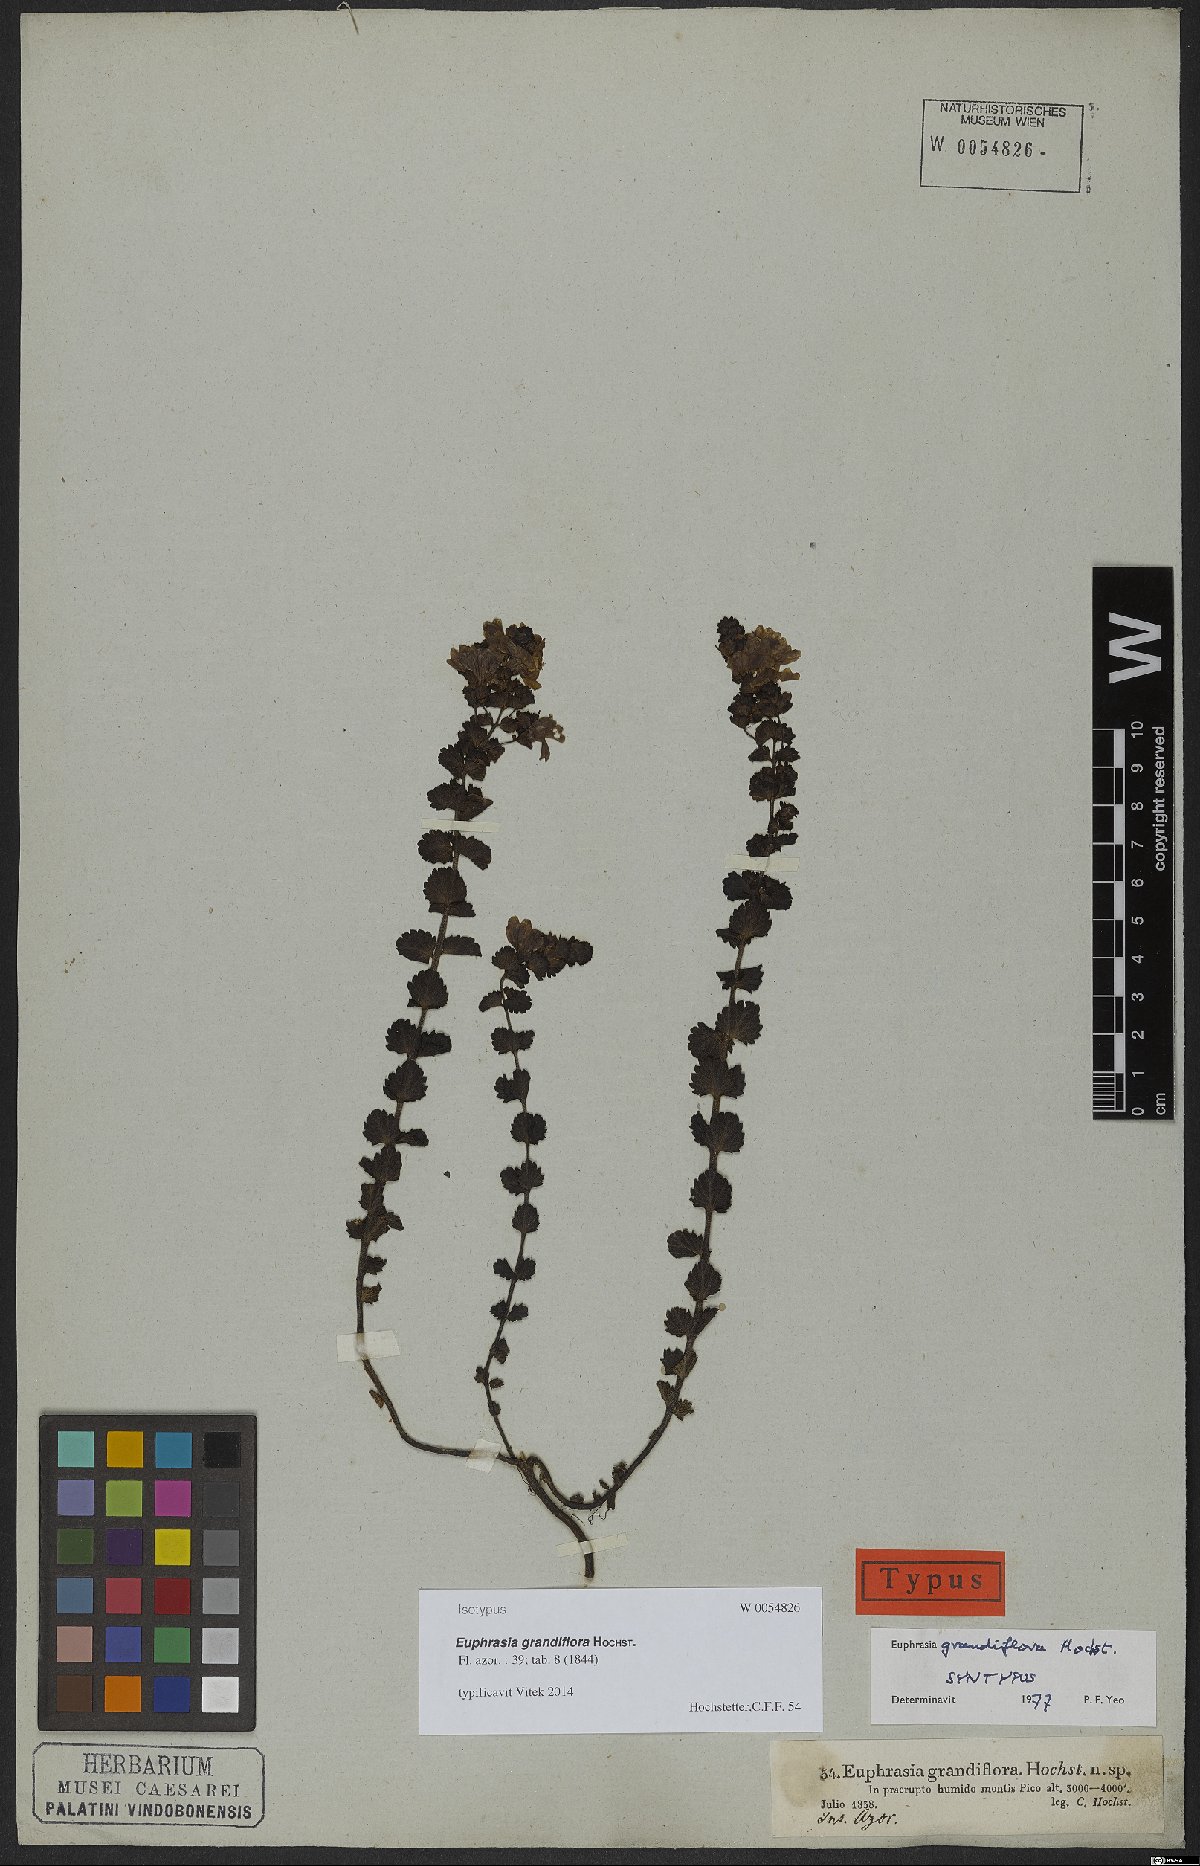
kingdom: Plantae
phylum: Tracheophyta
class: Magnoliopsida
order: Lamiales
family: Orobanchaceae
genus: Euphrasia
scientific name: Euphrasia grandiflora
